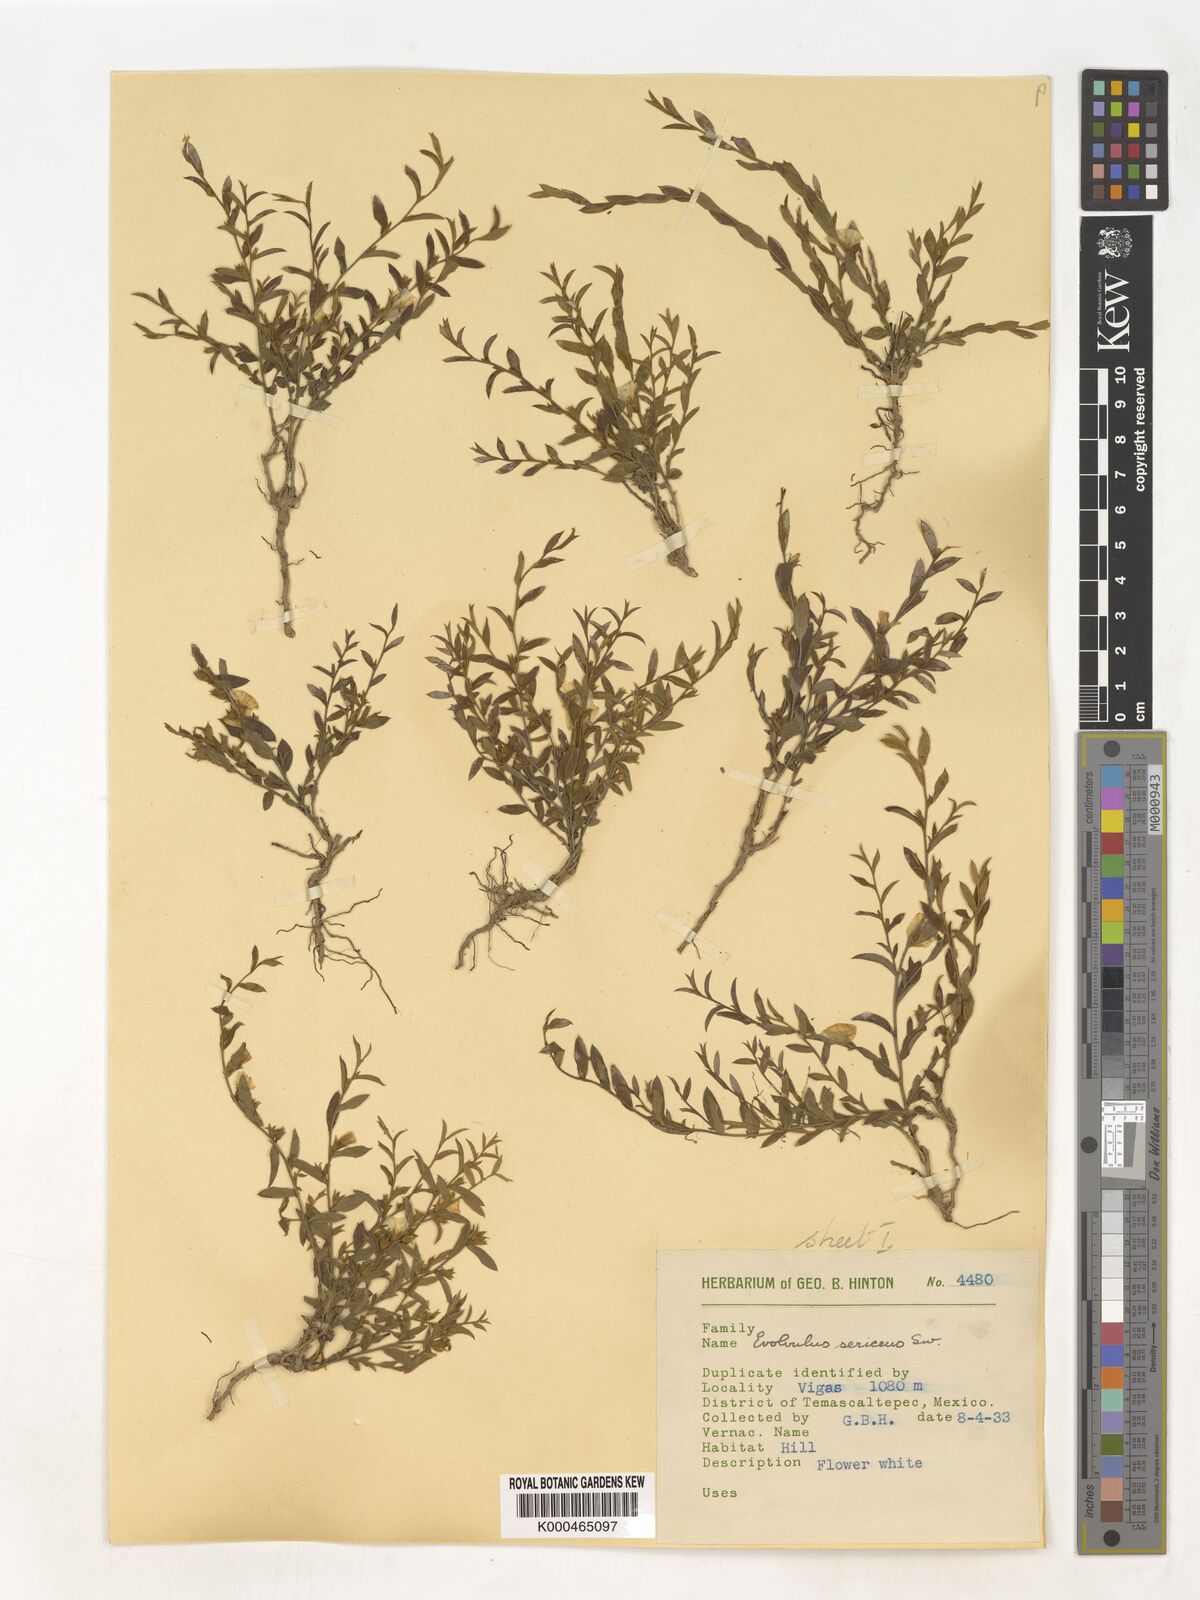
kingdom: Plantae
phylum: Tracheophyta
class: Magnoliopsida
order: Solanales
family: Convolvulaceae
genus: Evolvulus
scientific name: Evolvulus
